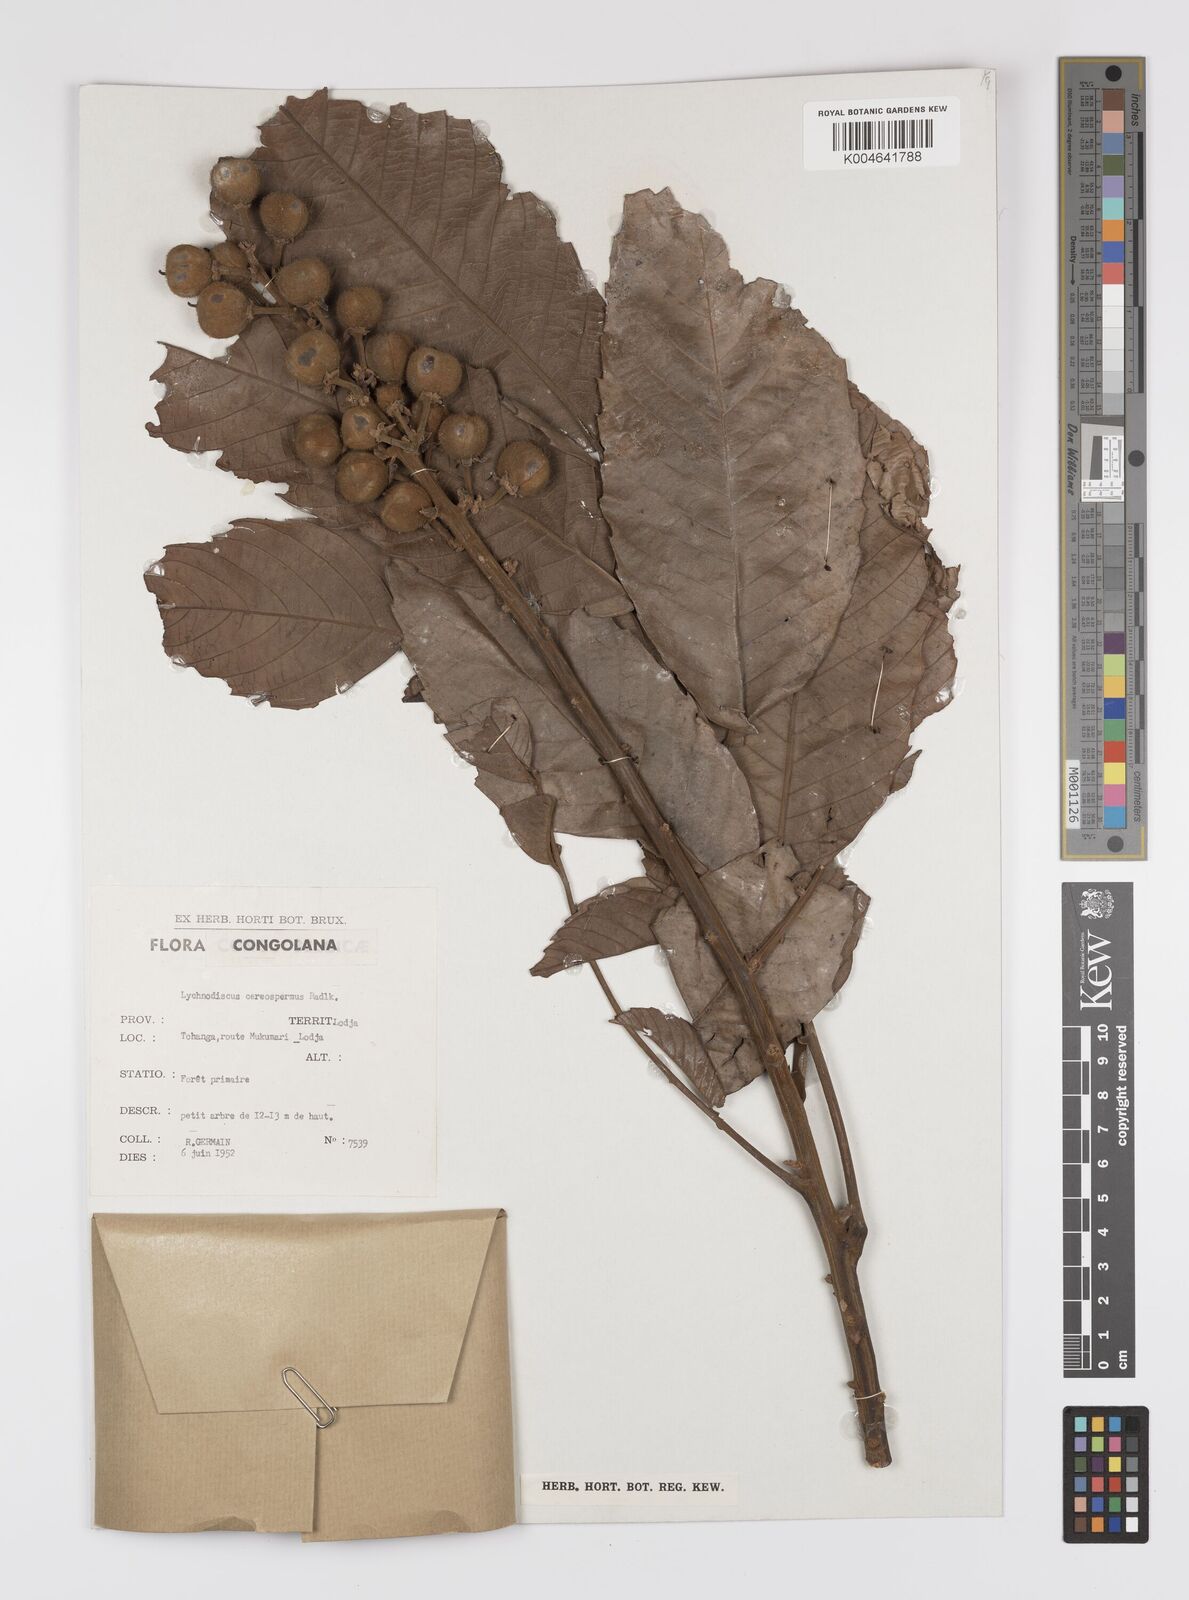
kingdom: Plantae
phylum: Tracheophyta
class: Magnoliopsida
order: Sapindales
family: Sapindaceae
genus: Lychnodiscus
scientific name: Lychnodiscus cerospermus
